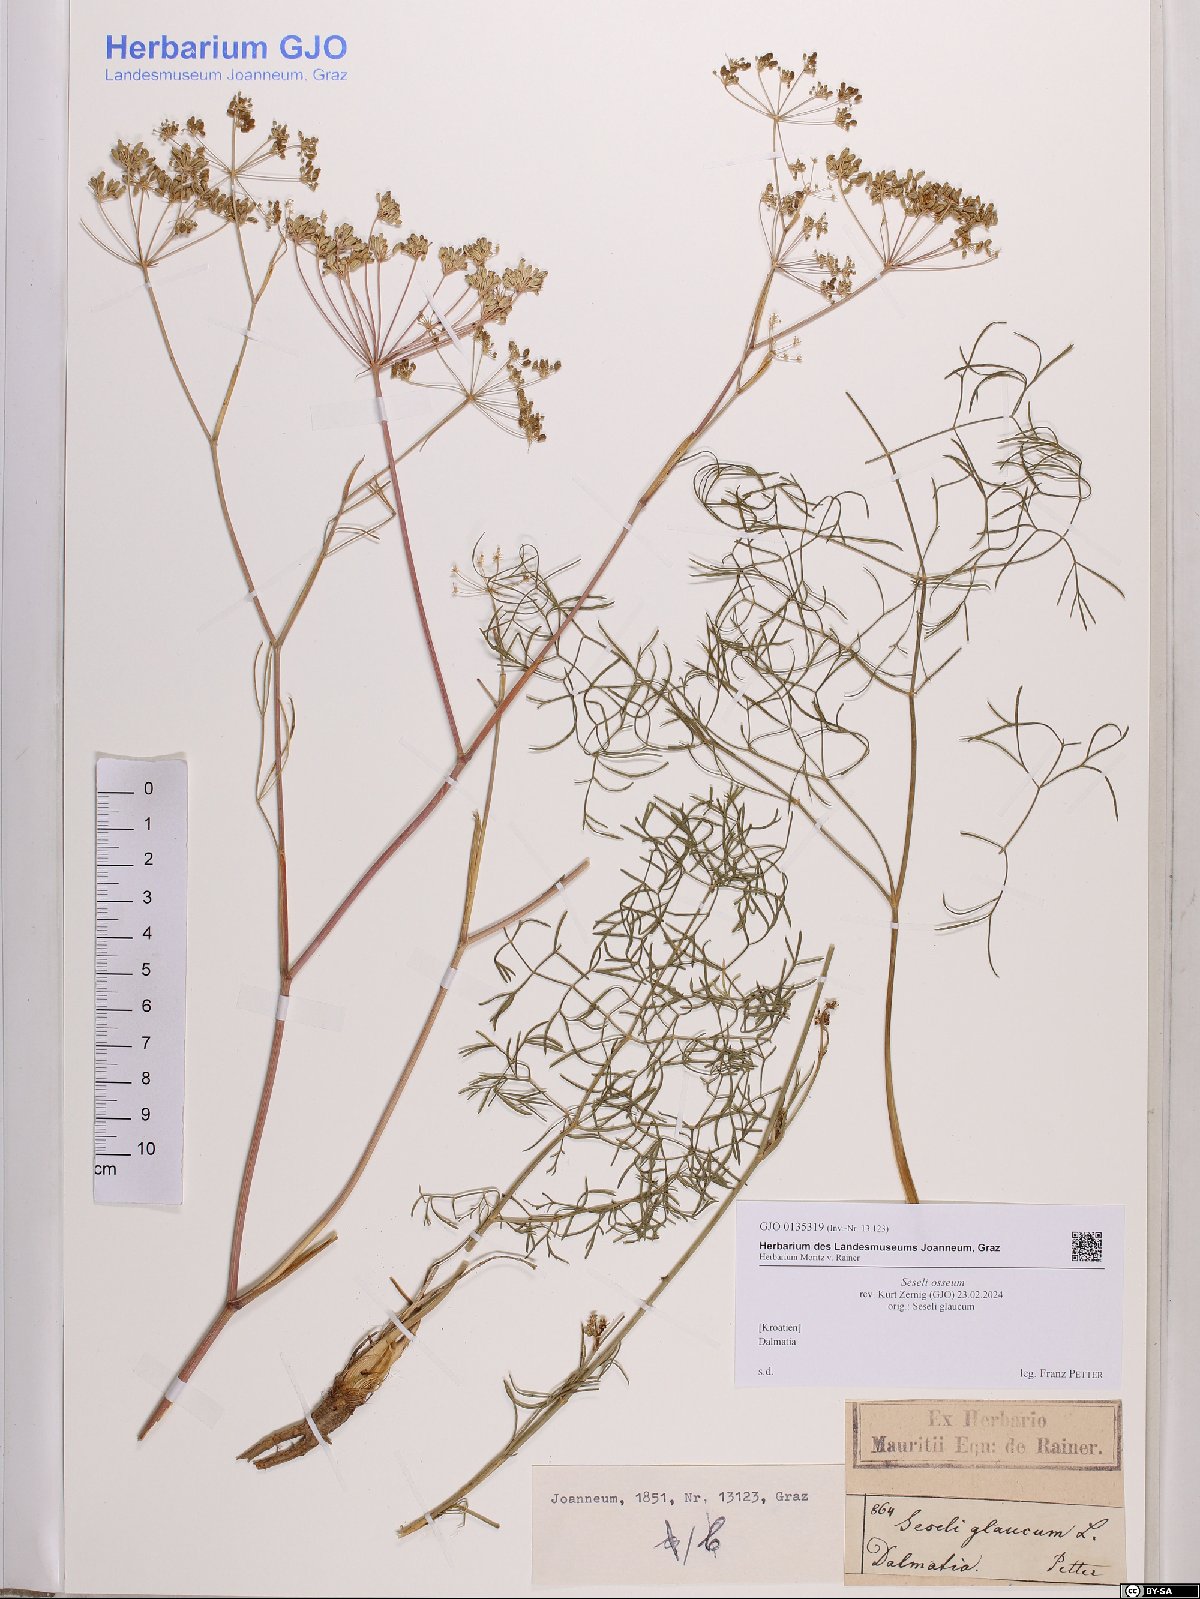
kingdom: Plantae
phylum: Tracheophyta
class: Magnoliopsida
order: Apiales
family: Apiaceae
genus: Seseli
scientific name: Seseli osseum
